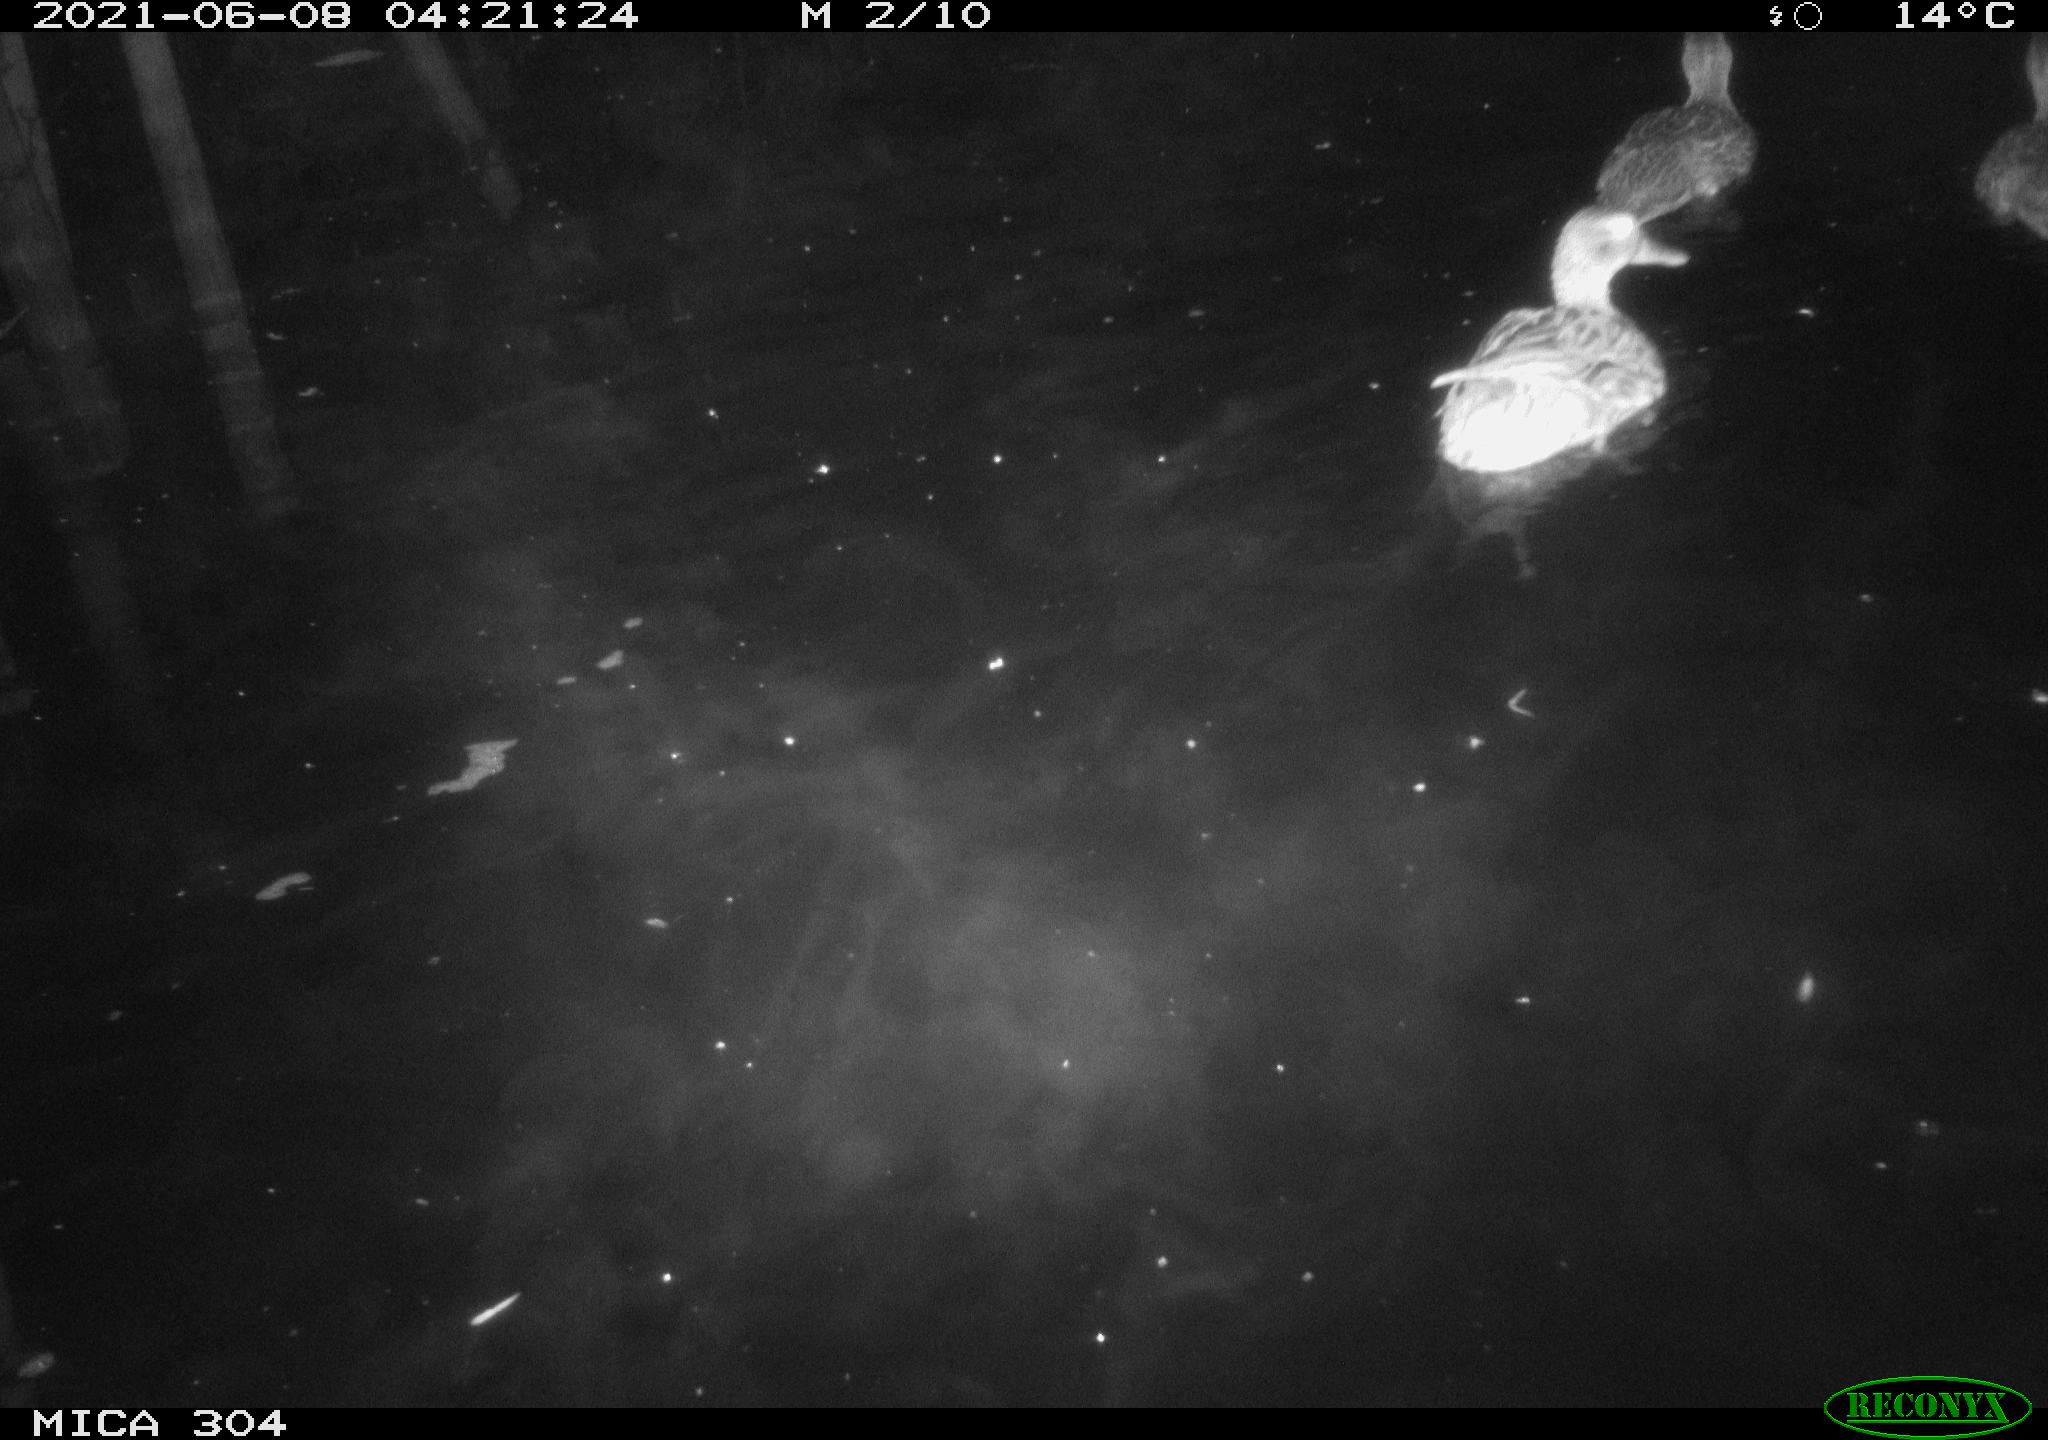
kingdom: Animalia
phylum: Chordata
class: Aves
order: Anseriformes
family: Anatidae
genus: Anas
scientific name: Anas platyrhynchos
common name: Mallard
